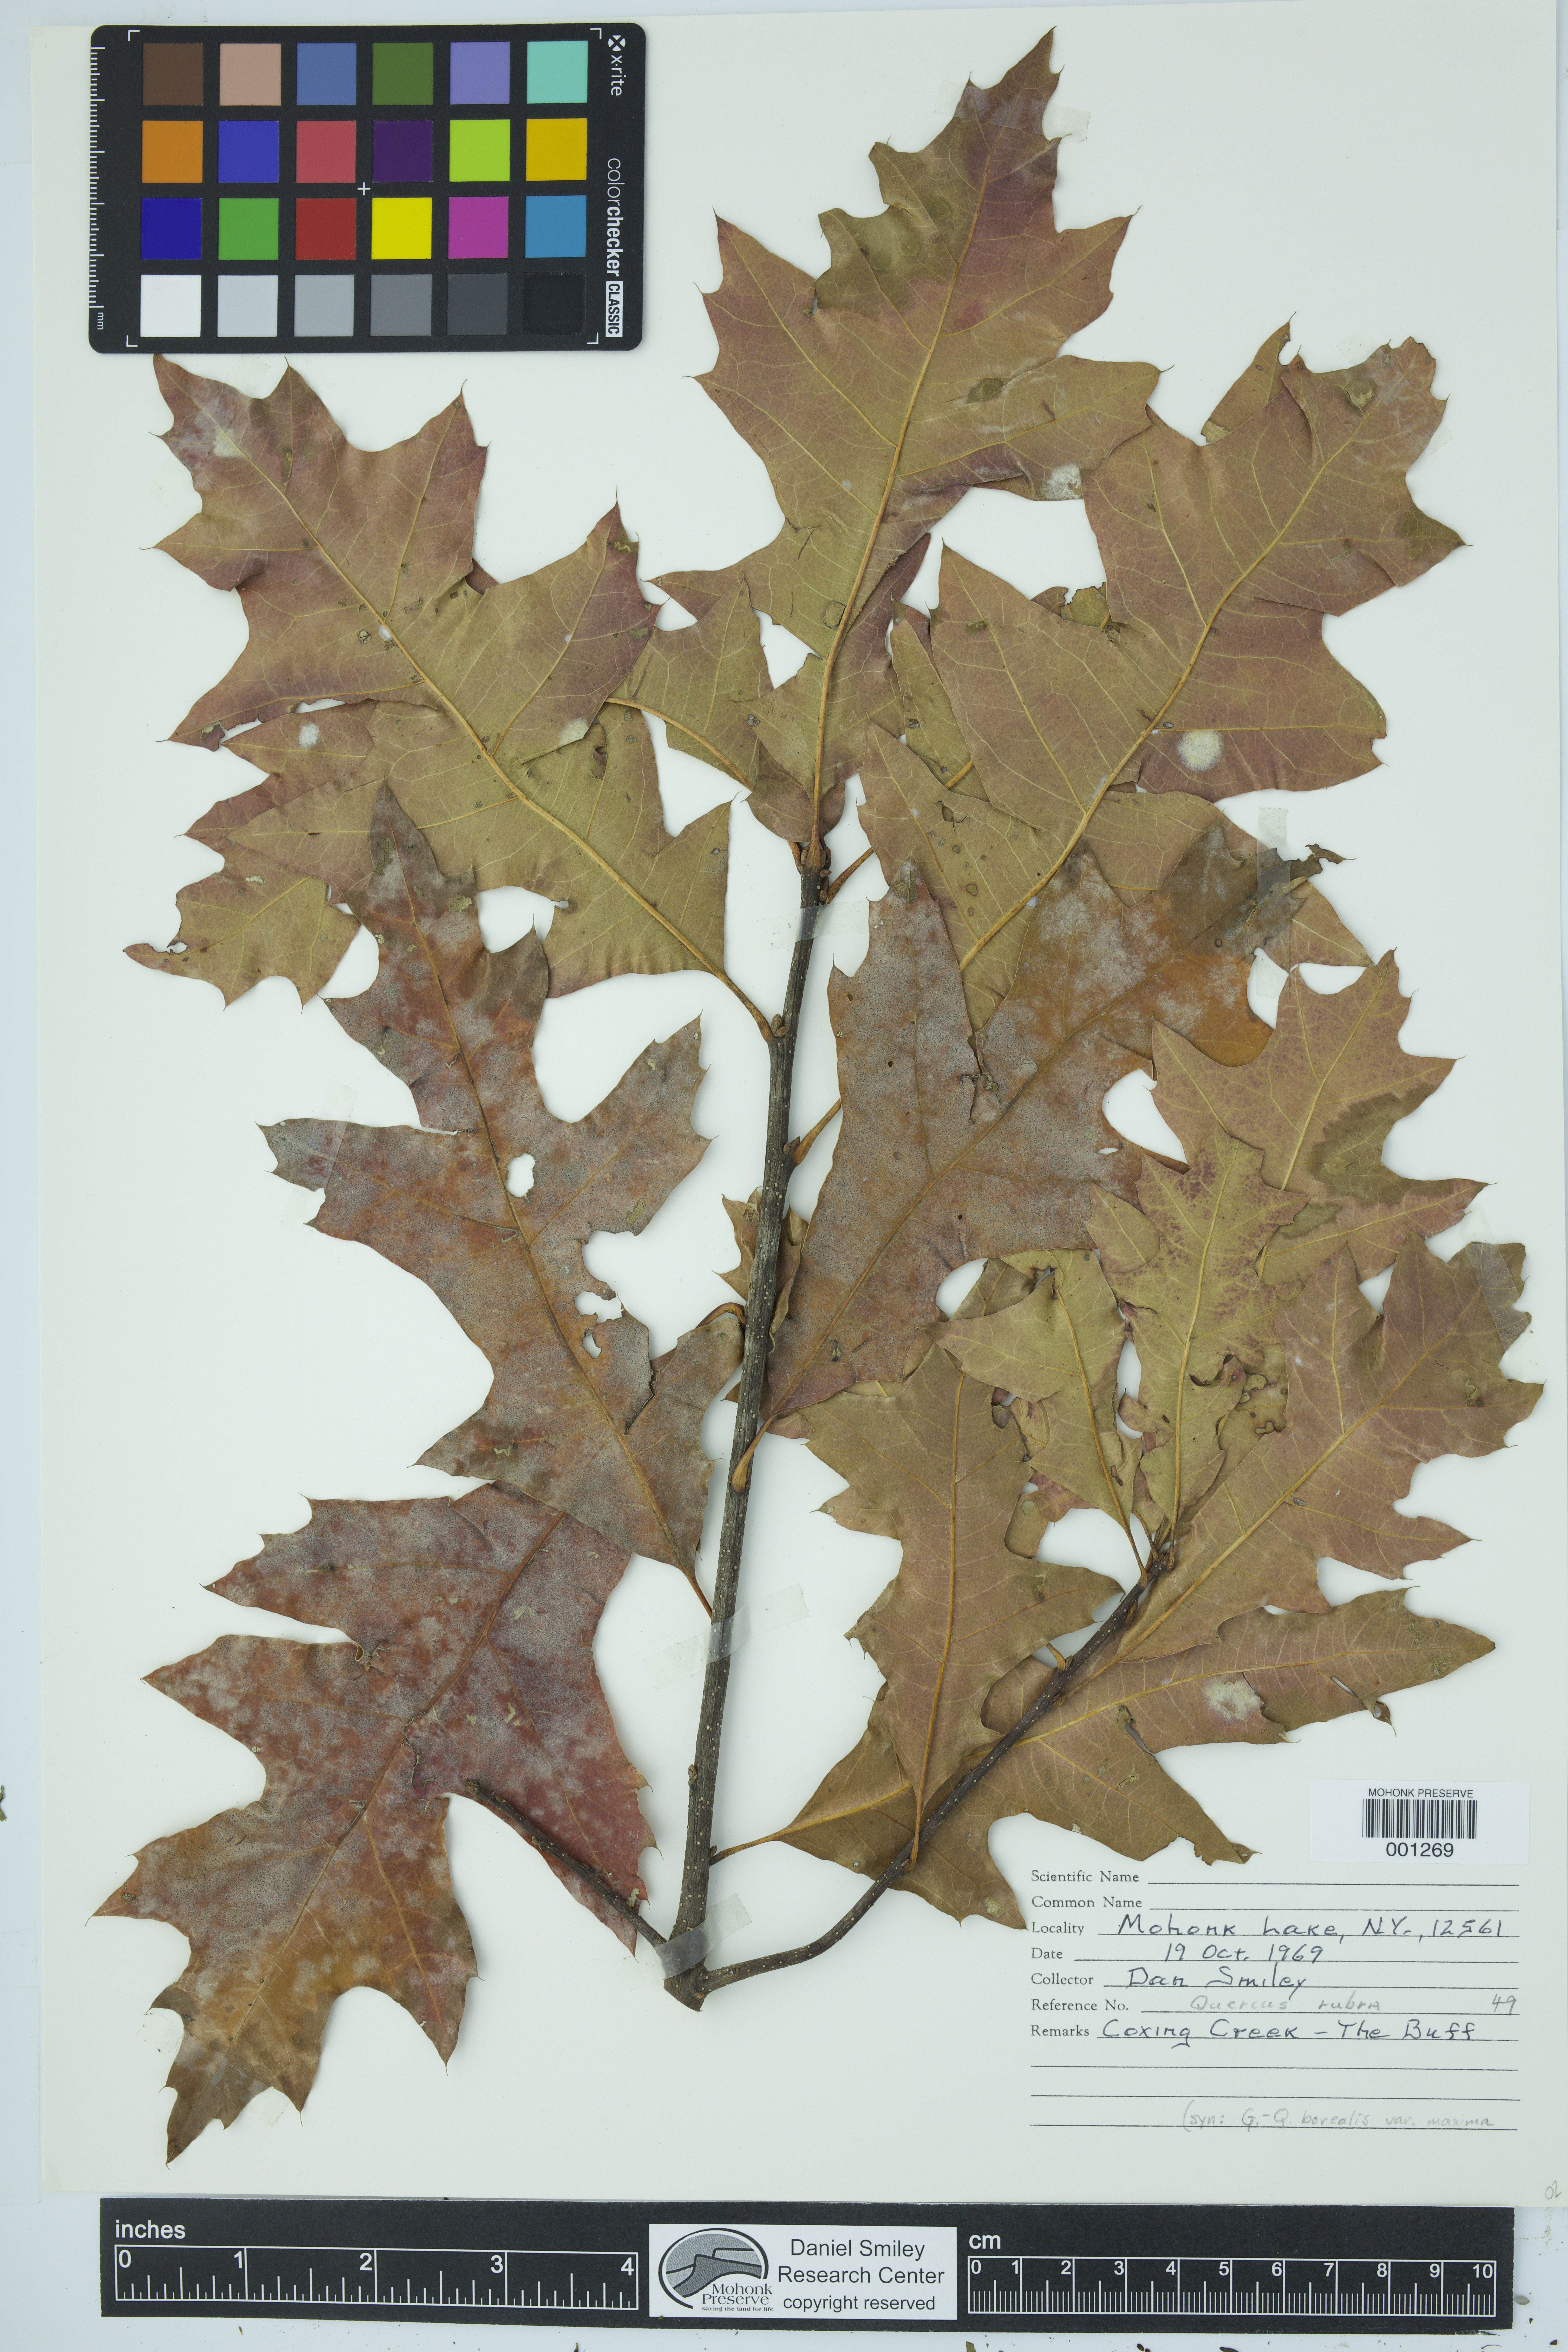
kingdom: Plantae
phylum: Tracheophyta
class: Magnoliopsida
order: Fagales
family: Fagaceae
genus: Quercus
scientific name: Quercus rubra
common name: Red oak
